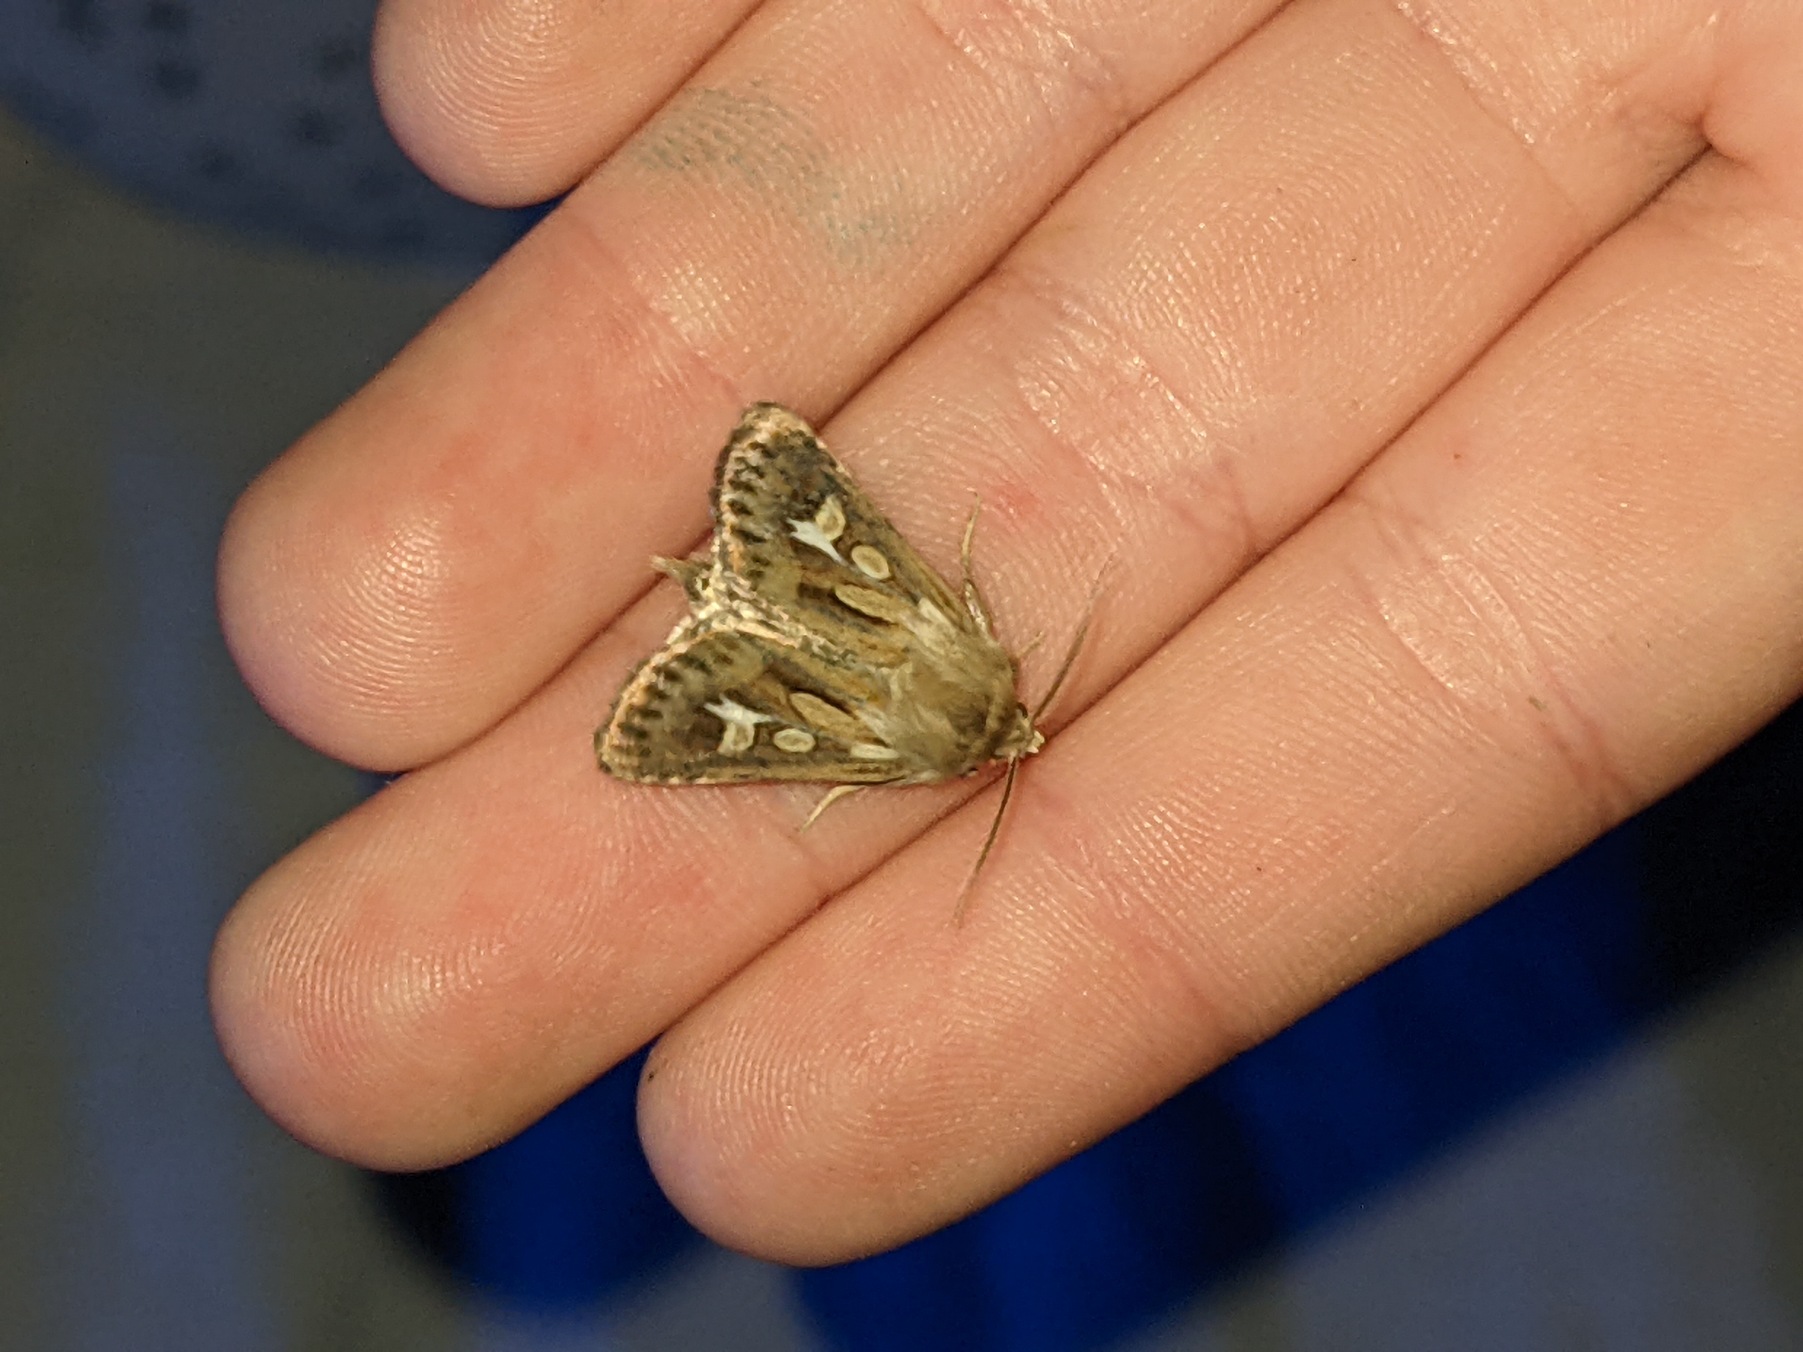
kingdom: Animalia
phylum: Arthropoda
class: Insecta
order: Lepidoptera
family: Noctuidae
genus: Cerapteryx
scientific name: Cerapteryx graminis
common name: Mosebunkeugle
